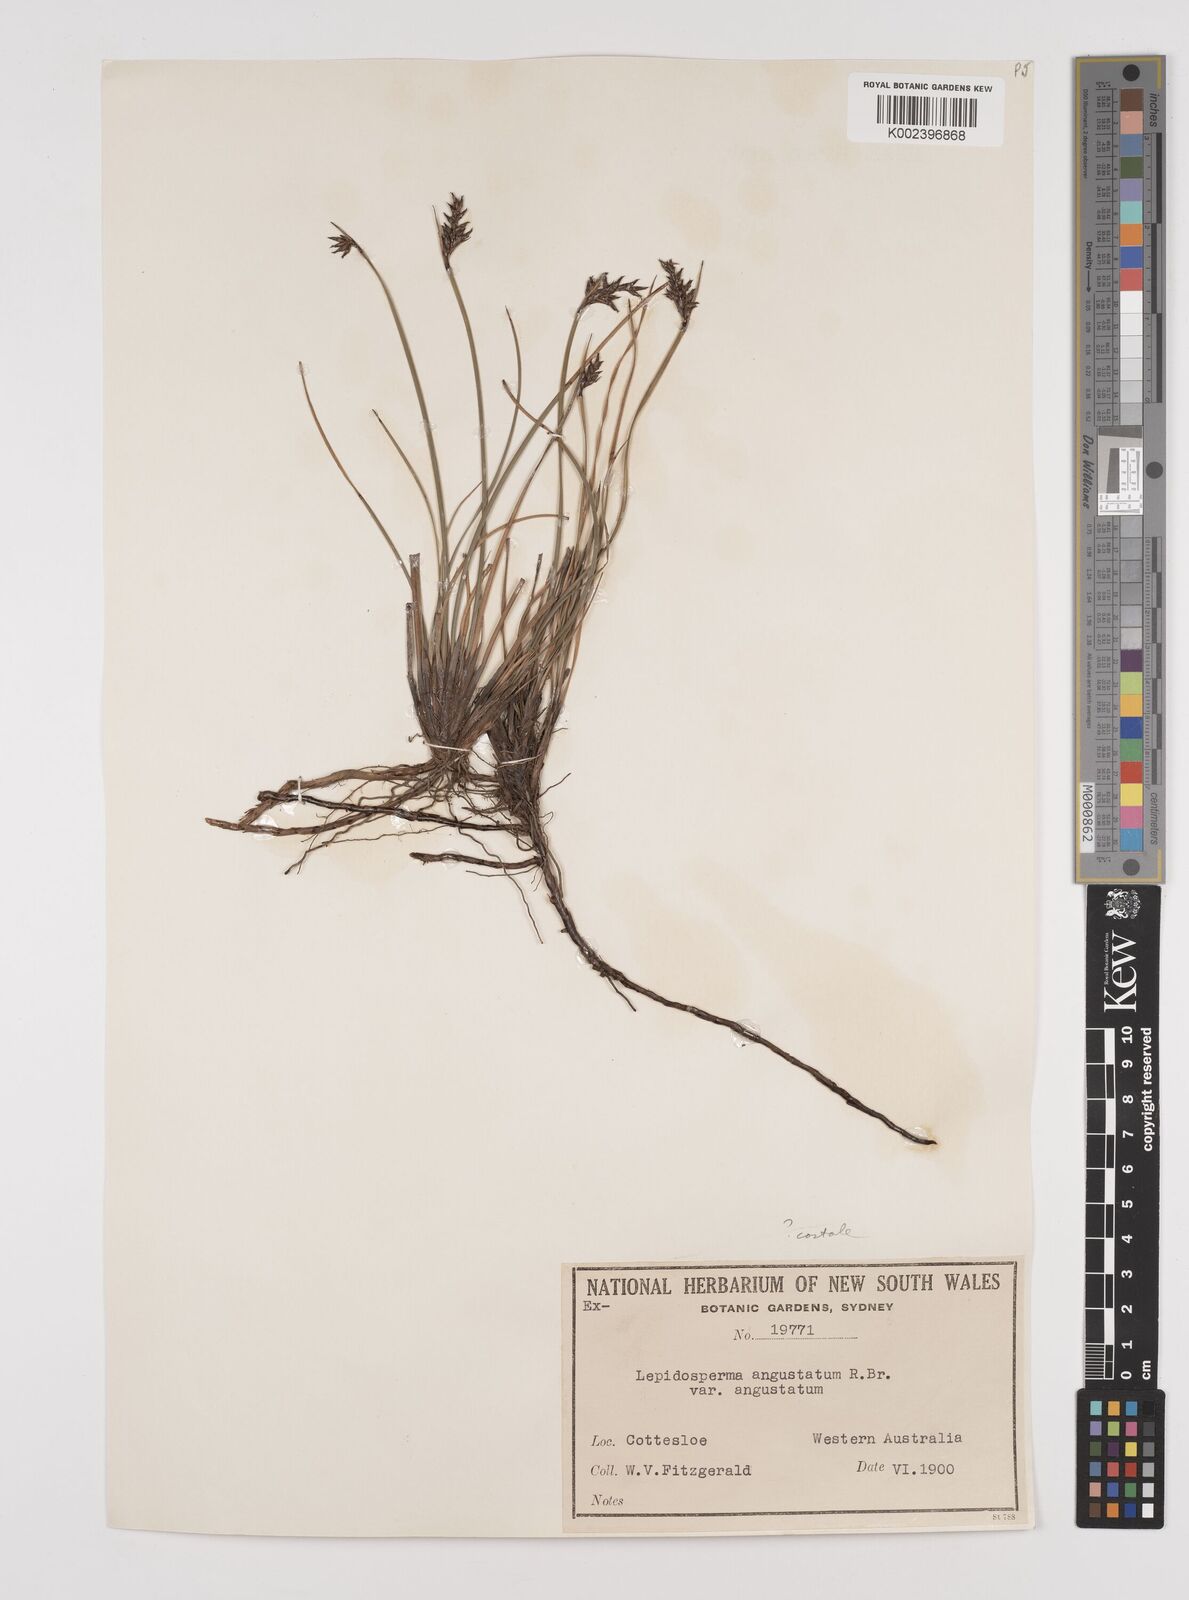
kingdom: Plantae
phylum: Tracheophyta
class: Liliopsida
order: Poales
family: Cyperaceae
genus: Lepidosperma
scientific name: Lepidosperma costale
